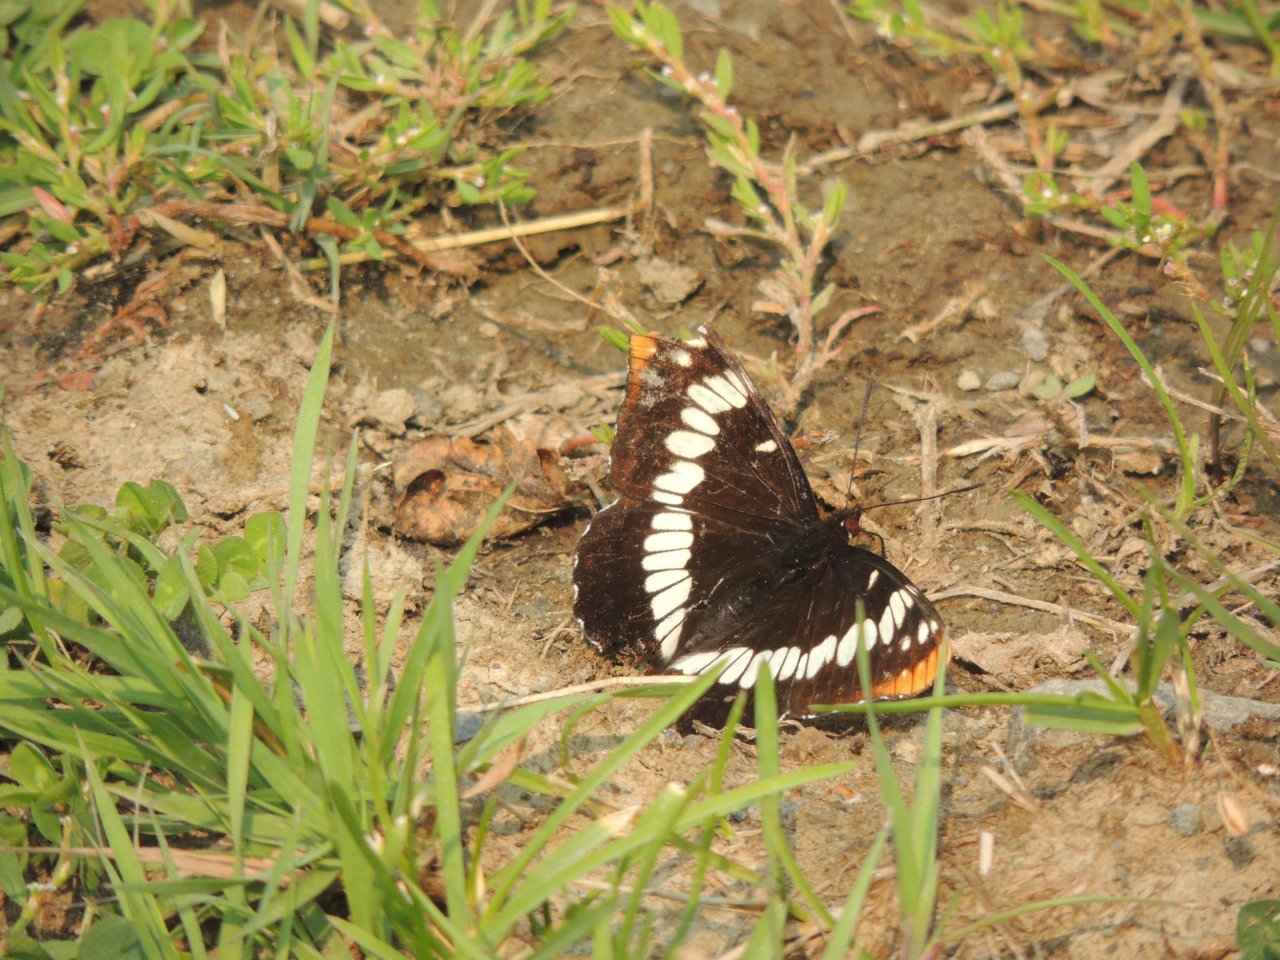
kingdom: Animalia
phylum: Arthropoda
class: Insecta
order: Lepidoptera
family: Nymphalidae
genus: Limenitis
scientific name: Limenitis lorquini
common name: Lorquin's Admiral
